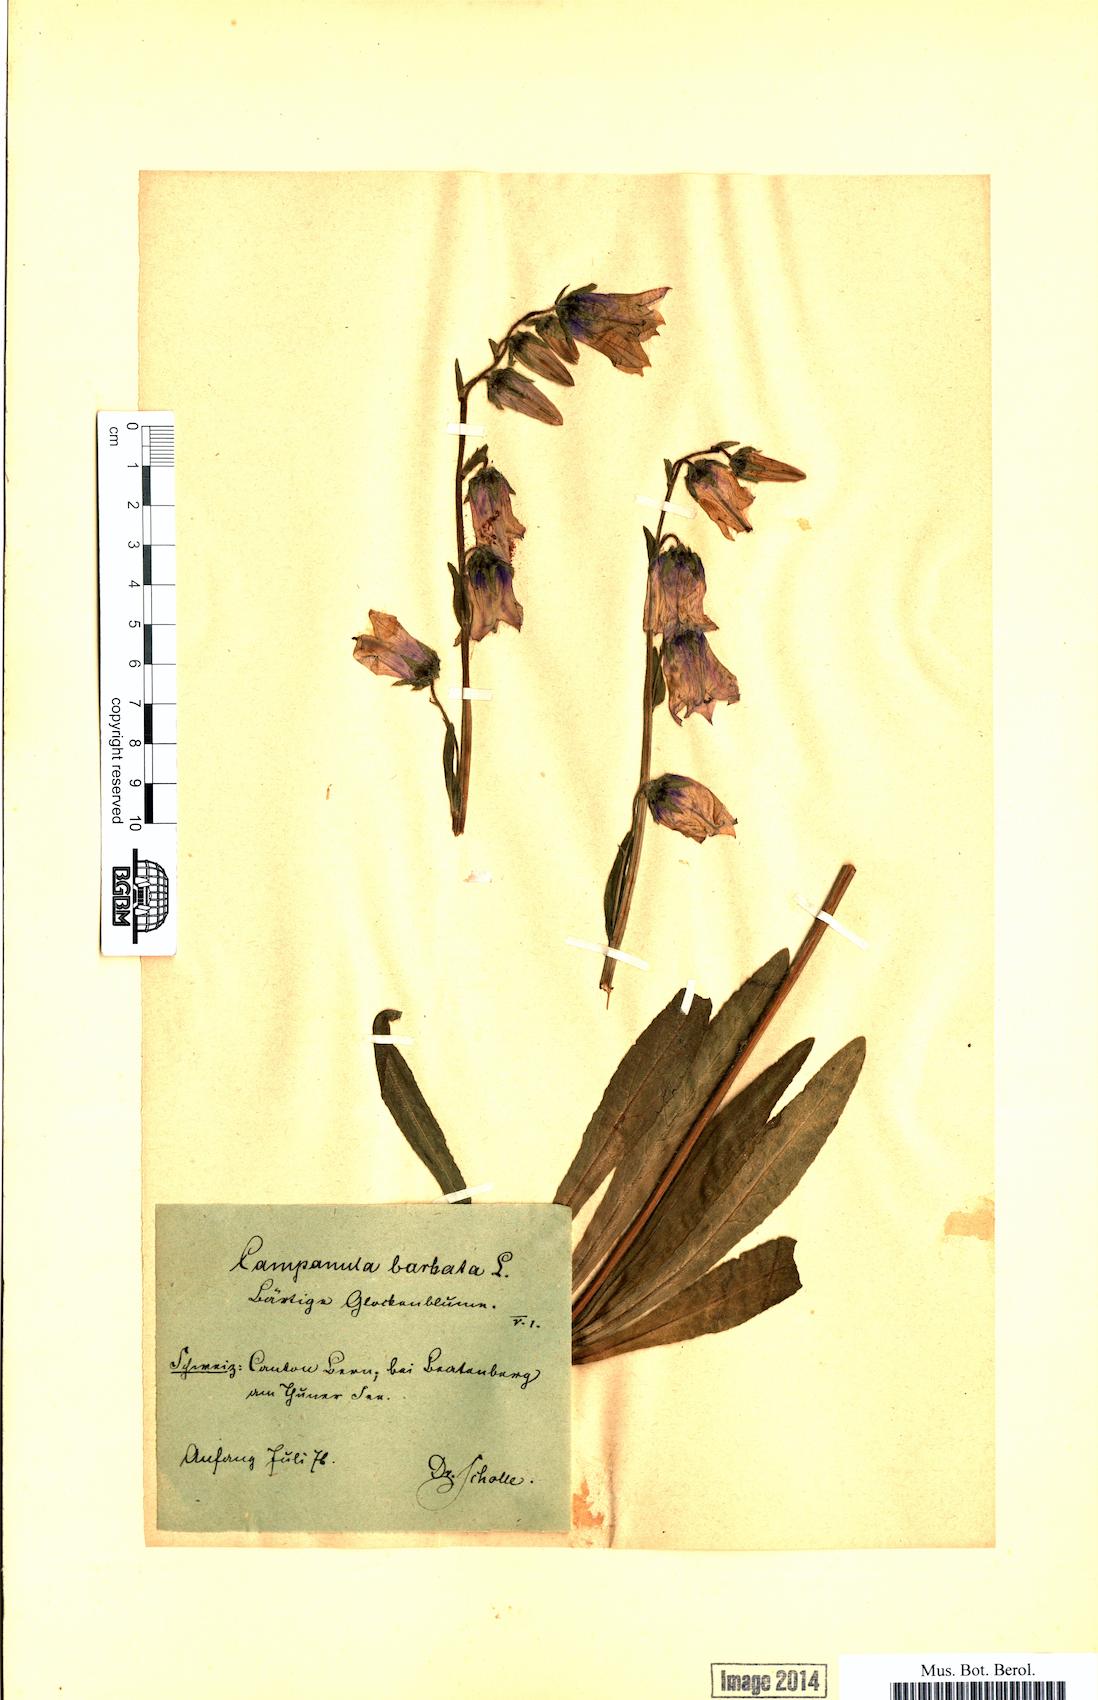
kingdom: Plantae
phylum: Tracheophyta
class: Magnoliopsida
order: Asterales
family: Campanulaceae
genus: Campanula
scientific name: Campanula barbata
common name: Bearded bellflower
